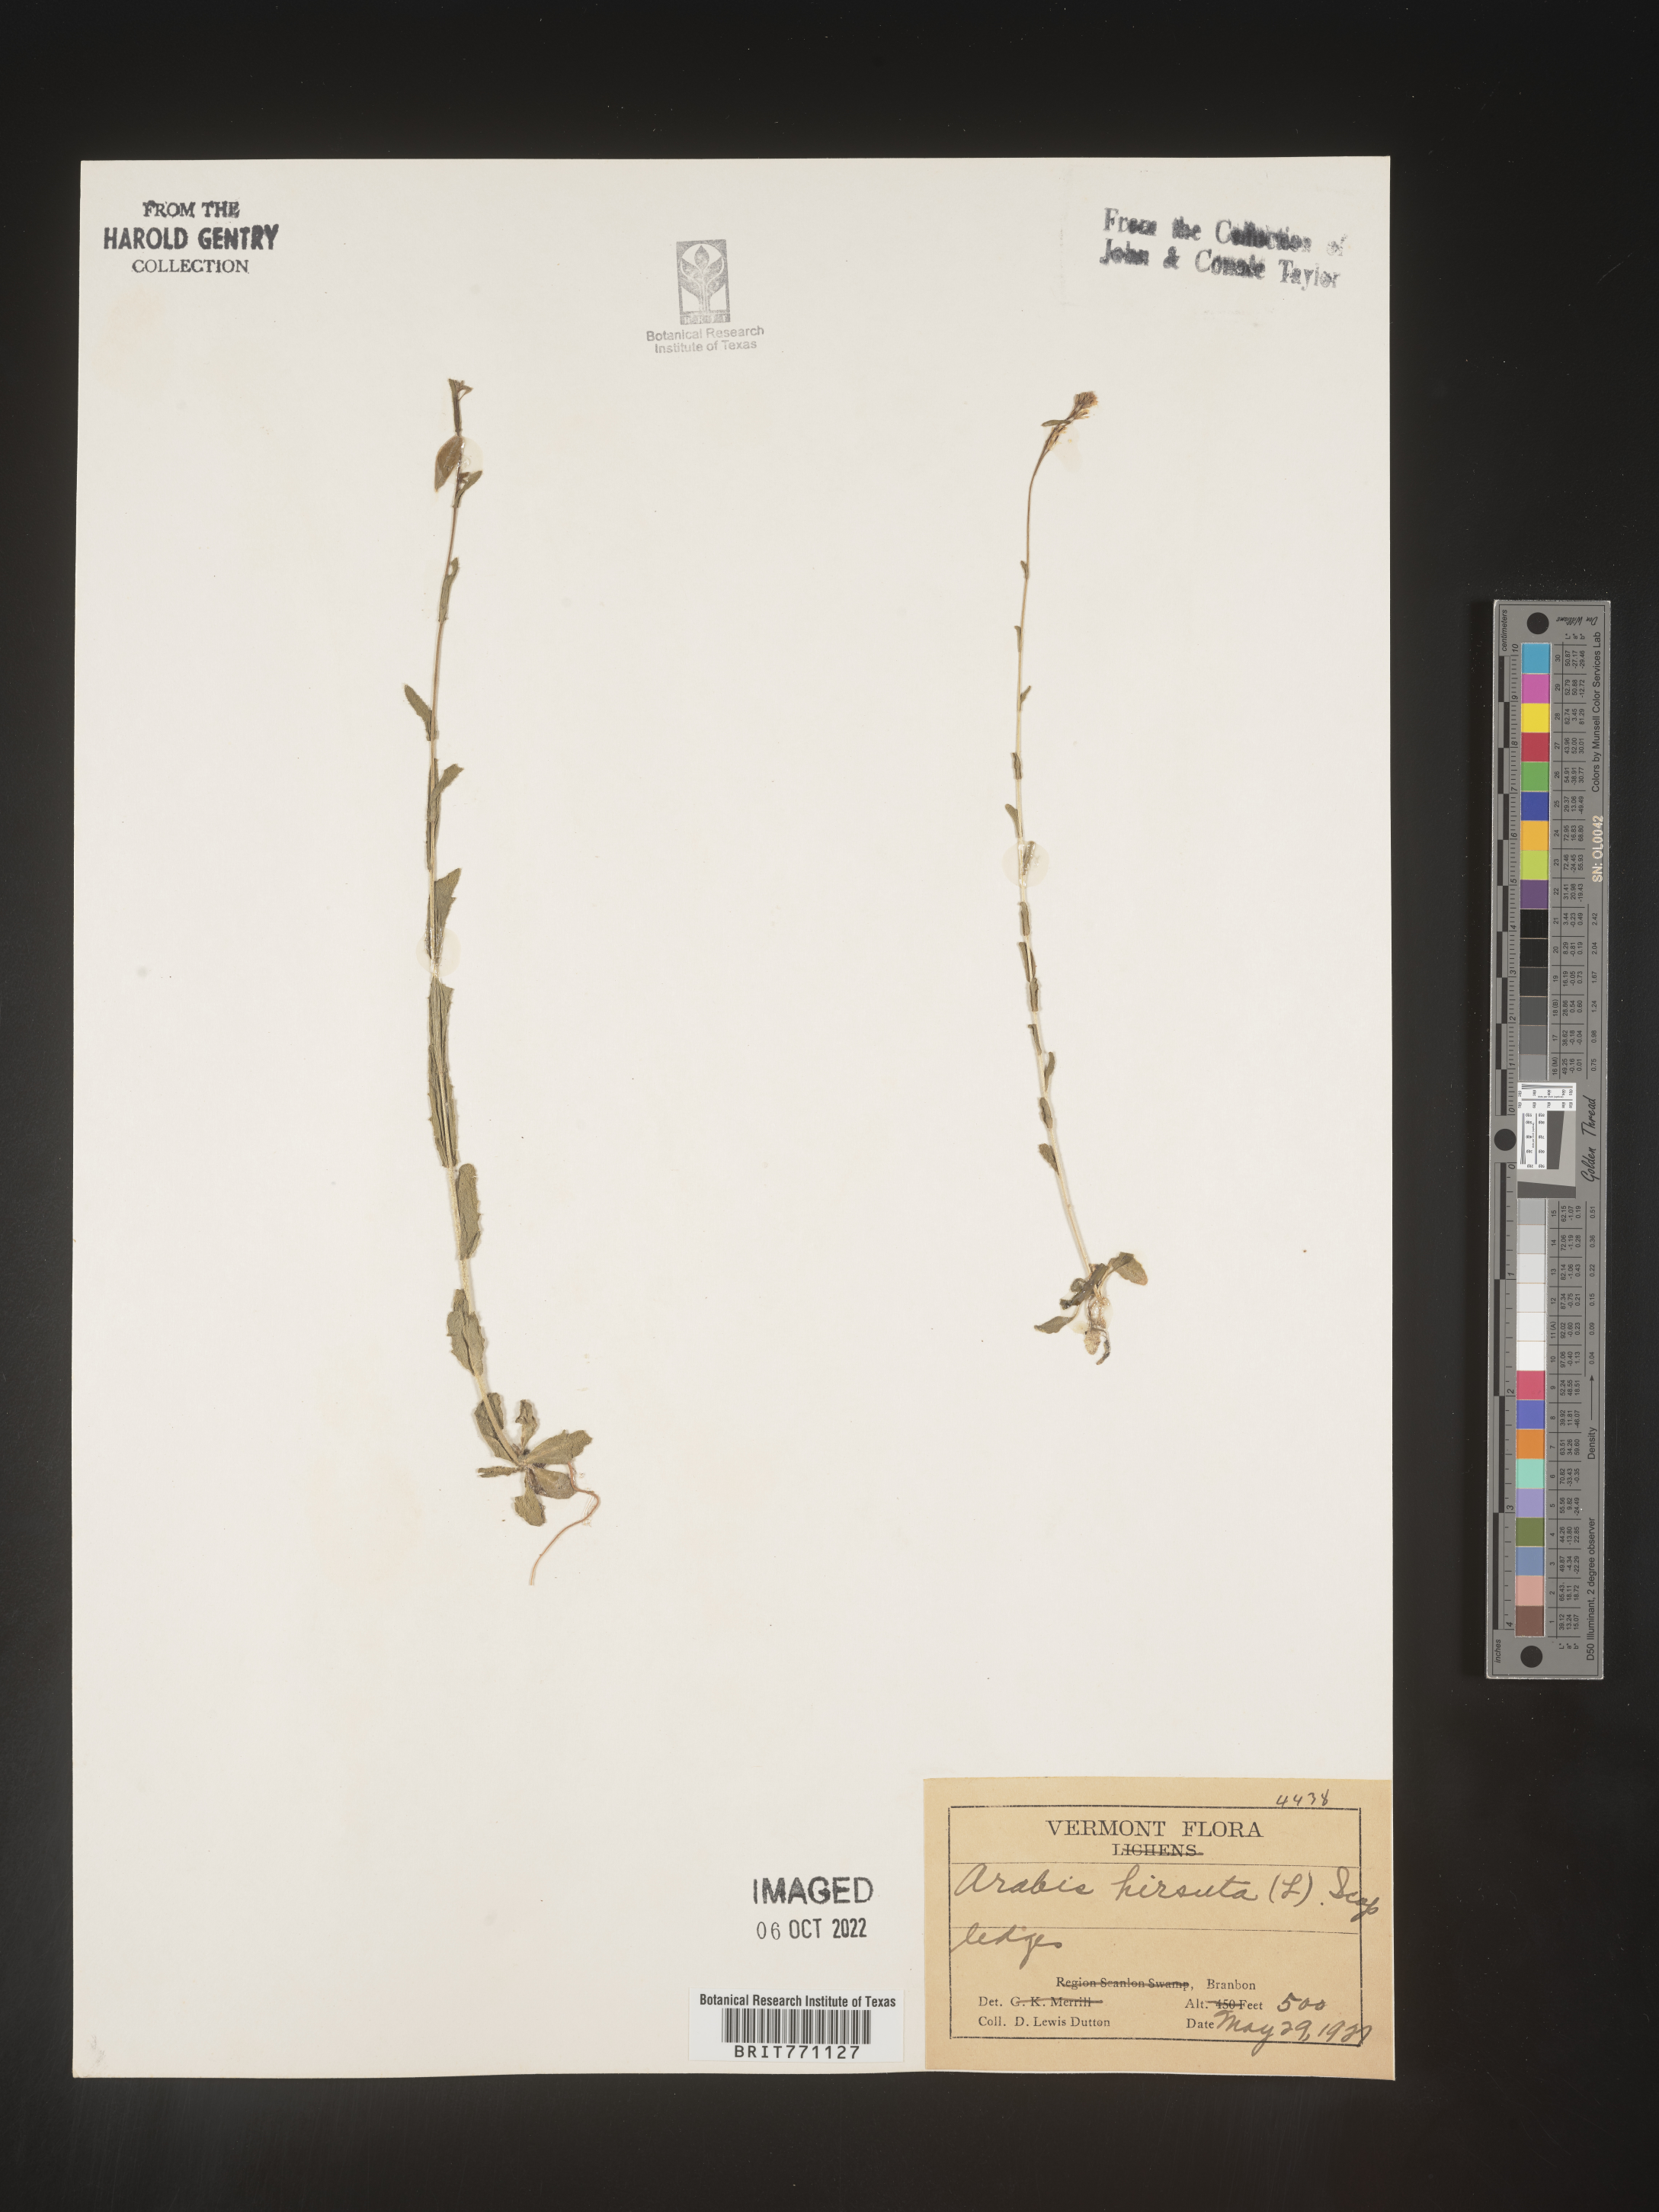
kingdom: Plantae
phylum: Tracheophyta
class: Magnoliopsida
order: Brassicales
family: Brassicaceae
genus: Arabis
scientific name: Arabis hirsuta
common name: Hairy rock-cress
